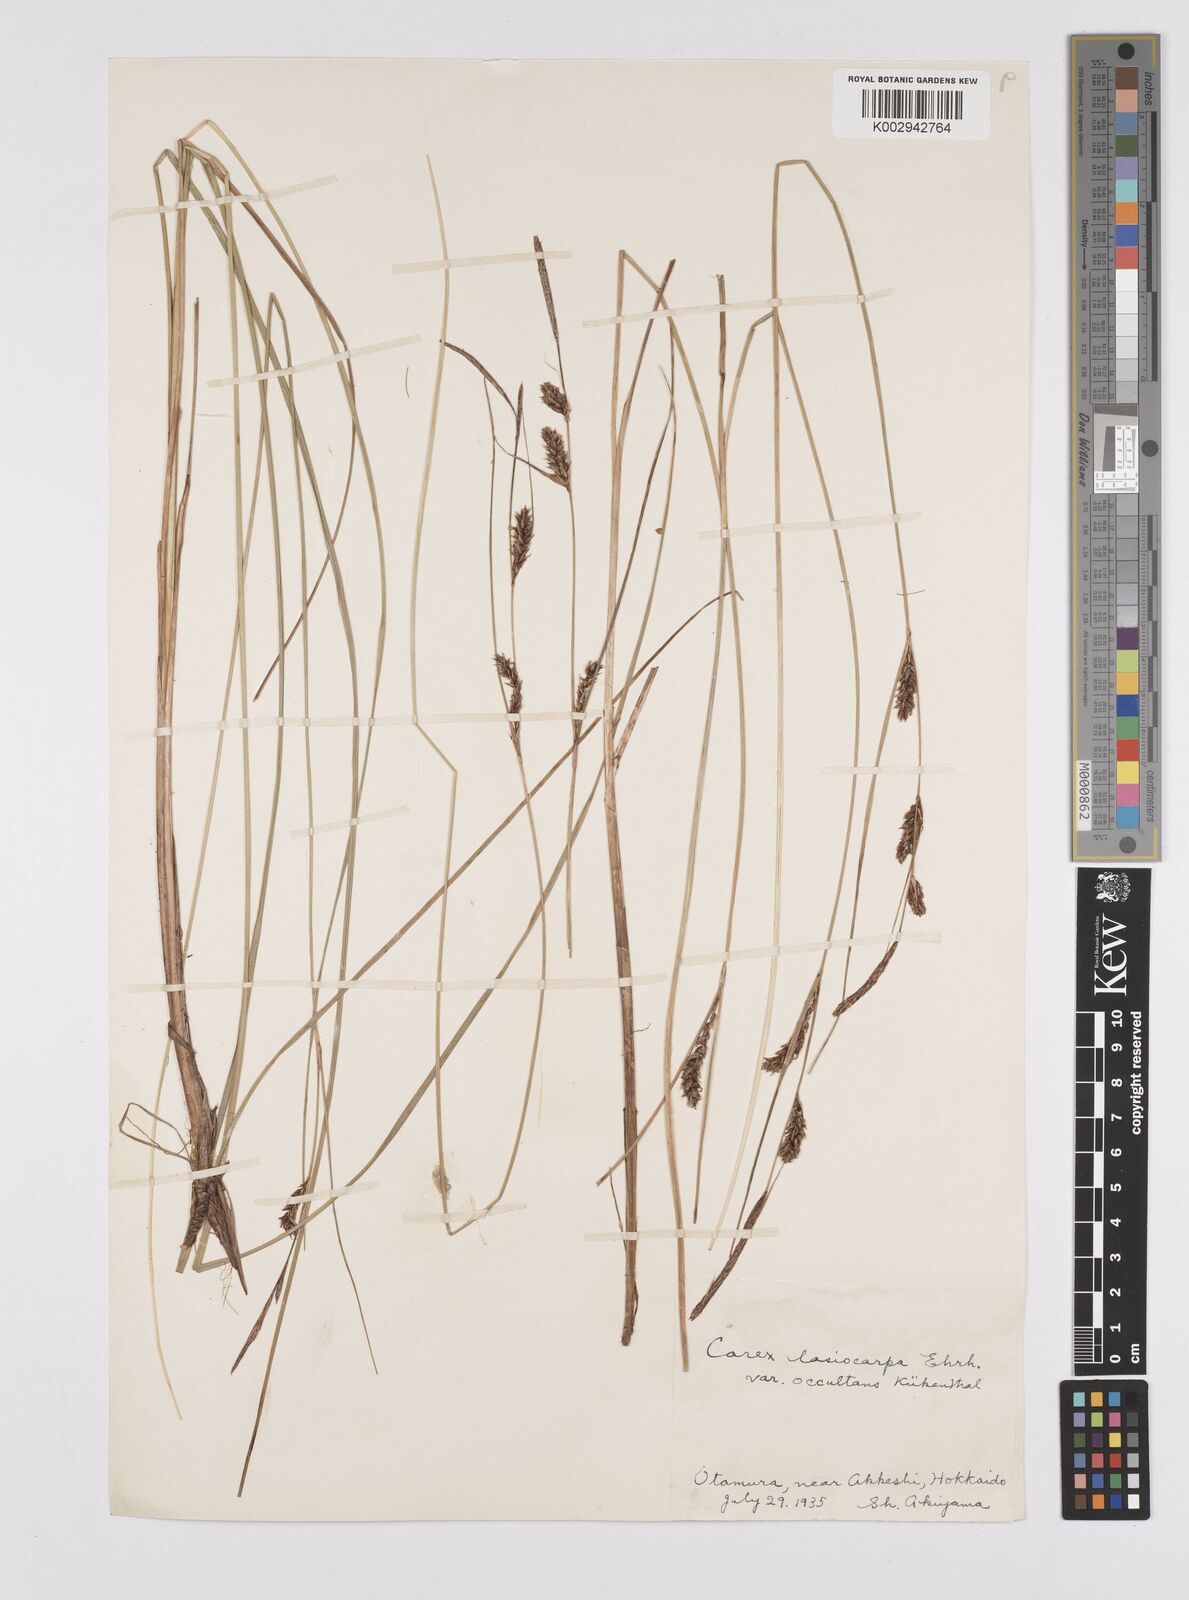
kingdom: Plantae
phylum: Tracheophyta
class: Liliopsida
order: Poales
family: Cyperaceae
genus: Carex
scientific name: Carex lasiocarpa
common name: Slender sedge
